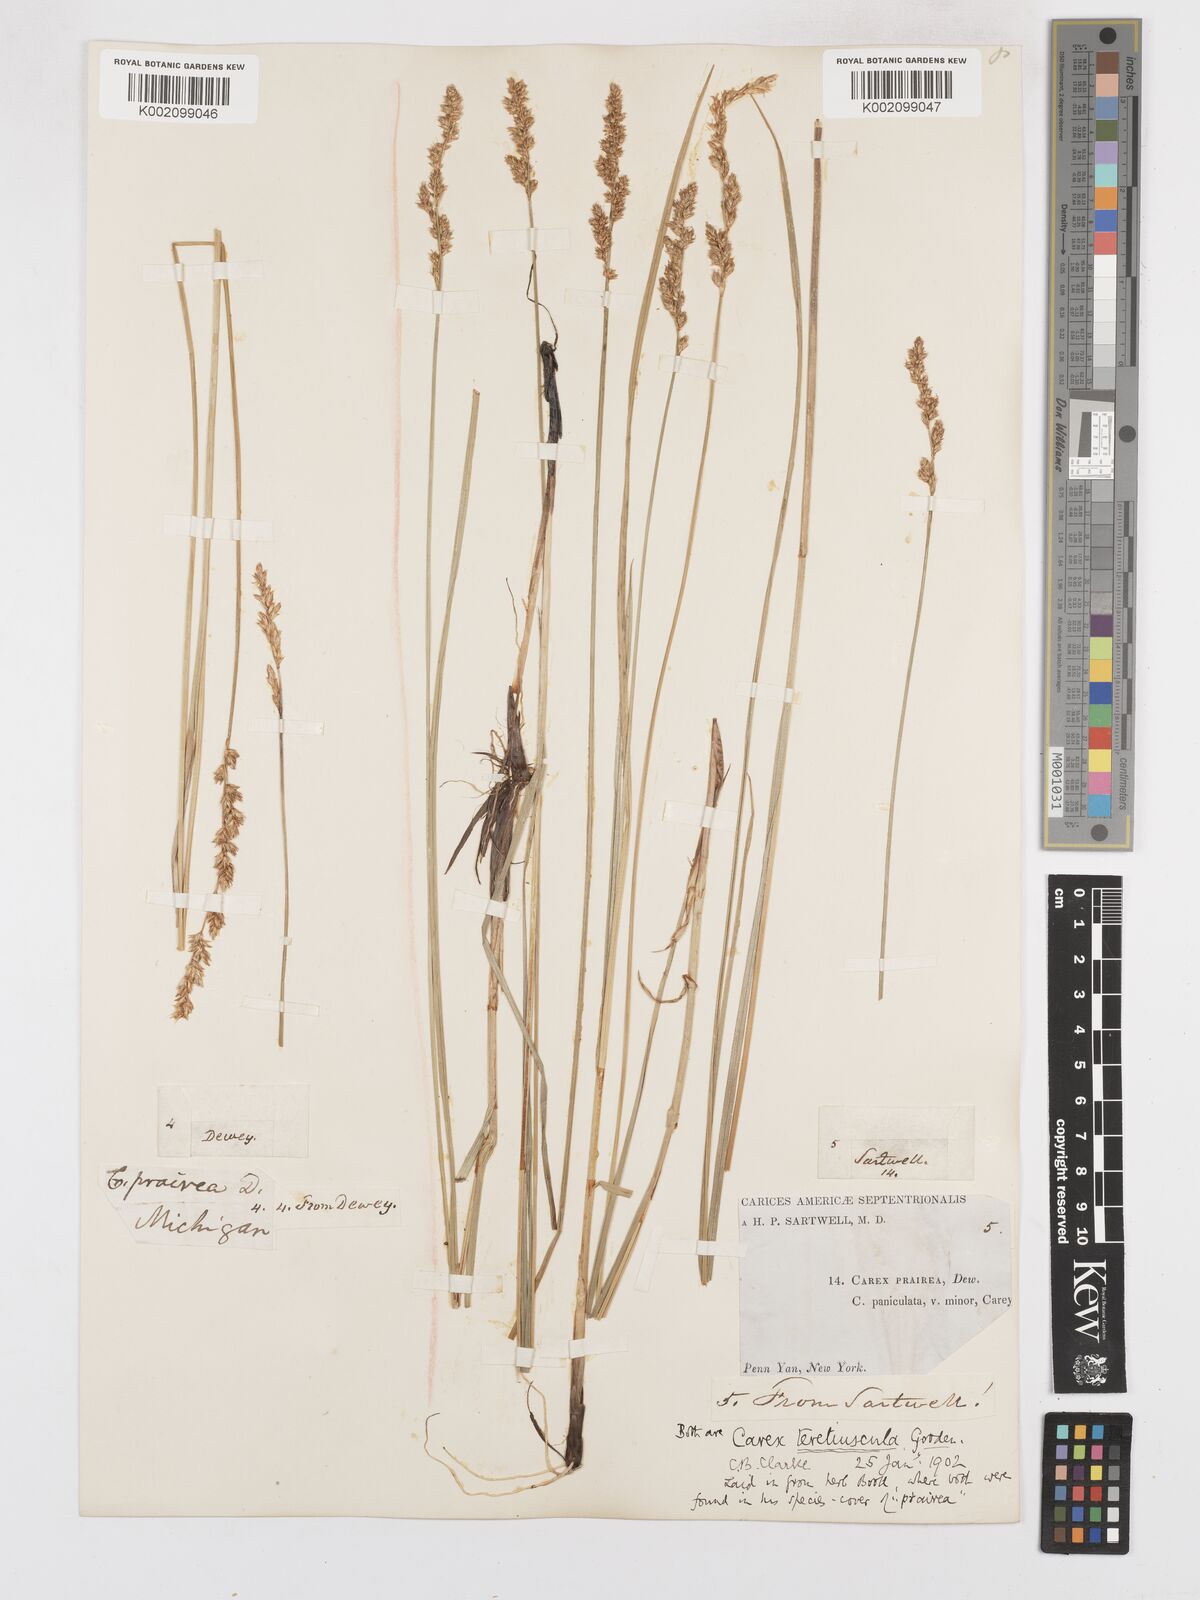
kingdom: Plantae
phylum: Tracheophyta
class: Liliopsida
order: Poales
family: Cyperaceae
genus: Carex
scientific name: Carex diandra
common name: Lesser tussock-sedge
